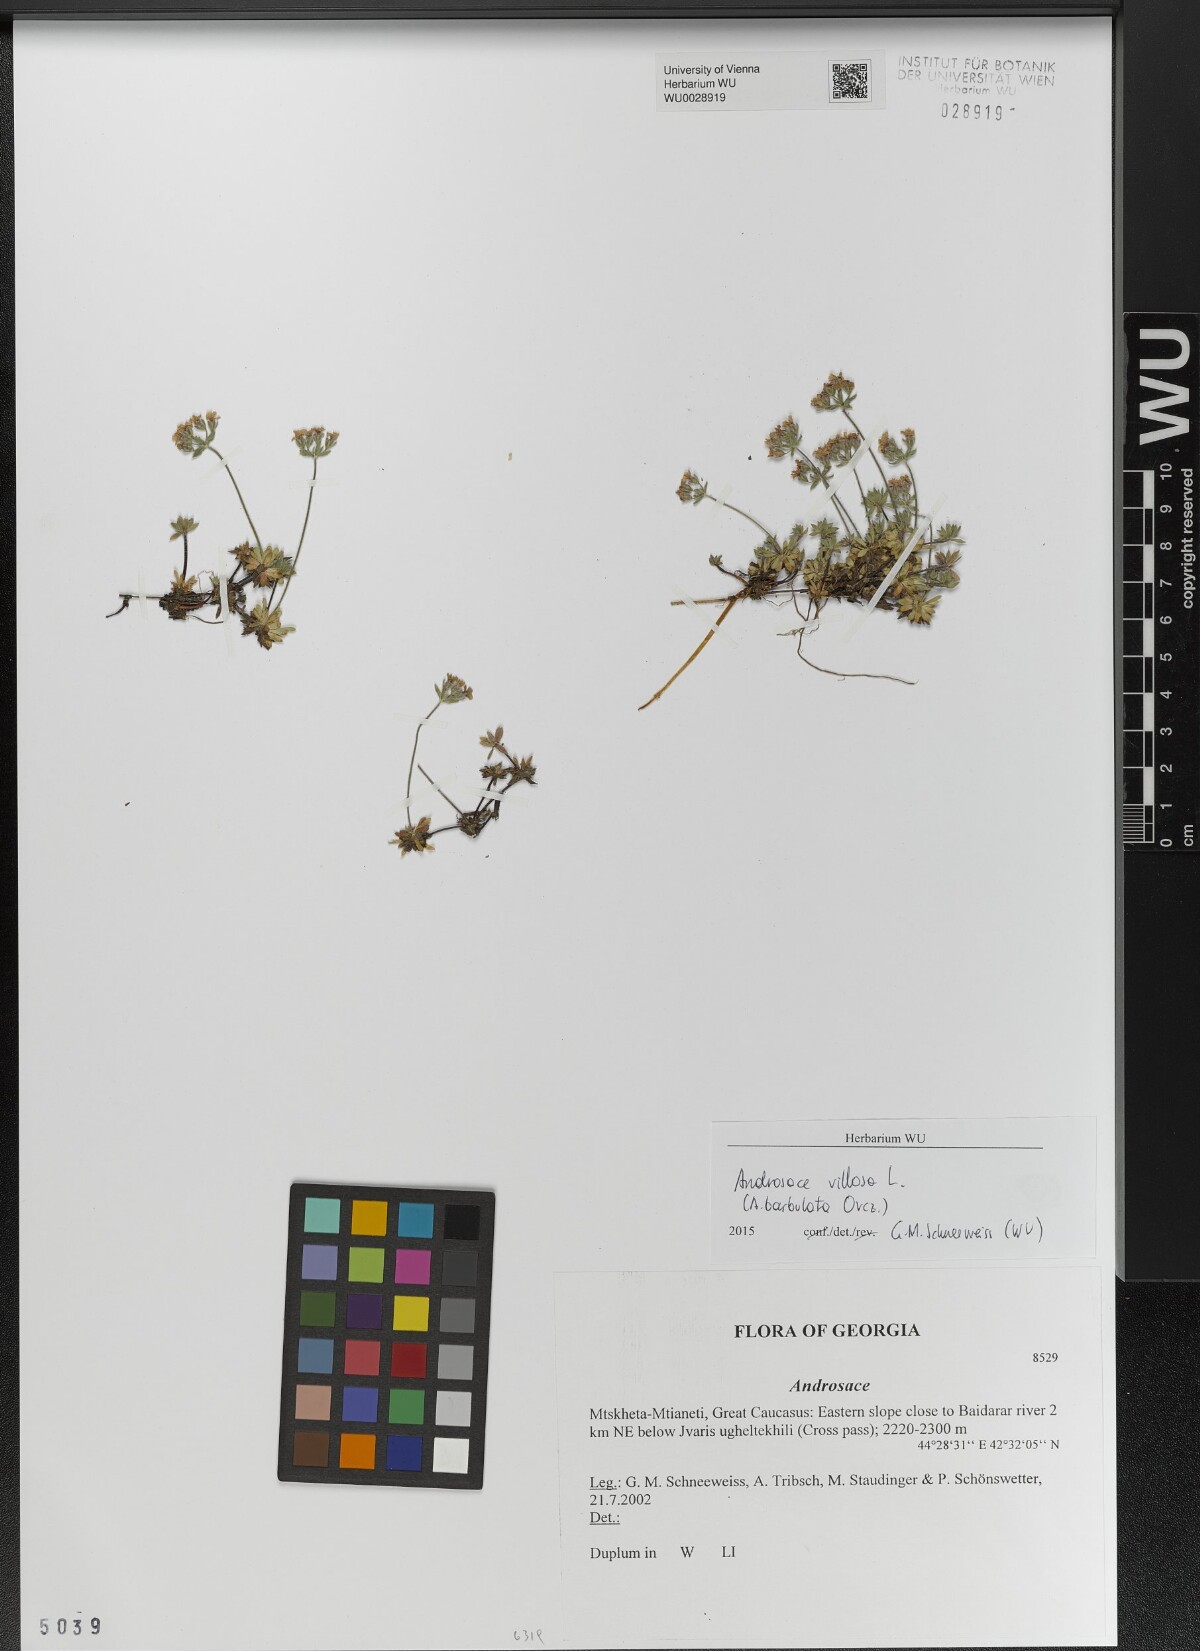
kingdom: Plantae
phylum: Tracheophyta
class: Magnoliopsida
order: Ericales
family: Primulaceae
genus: Androsace
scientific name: Androsace
